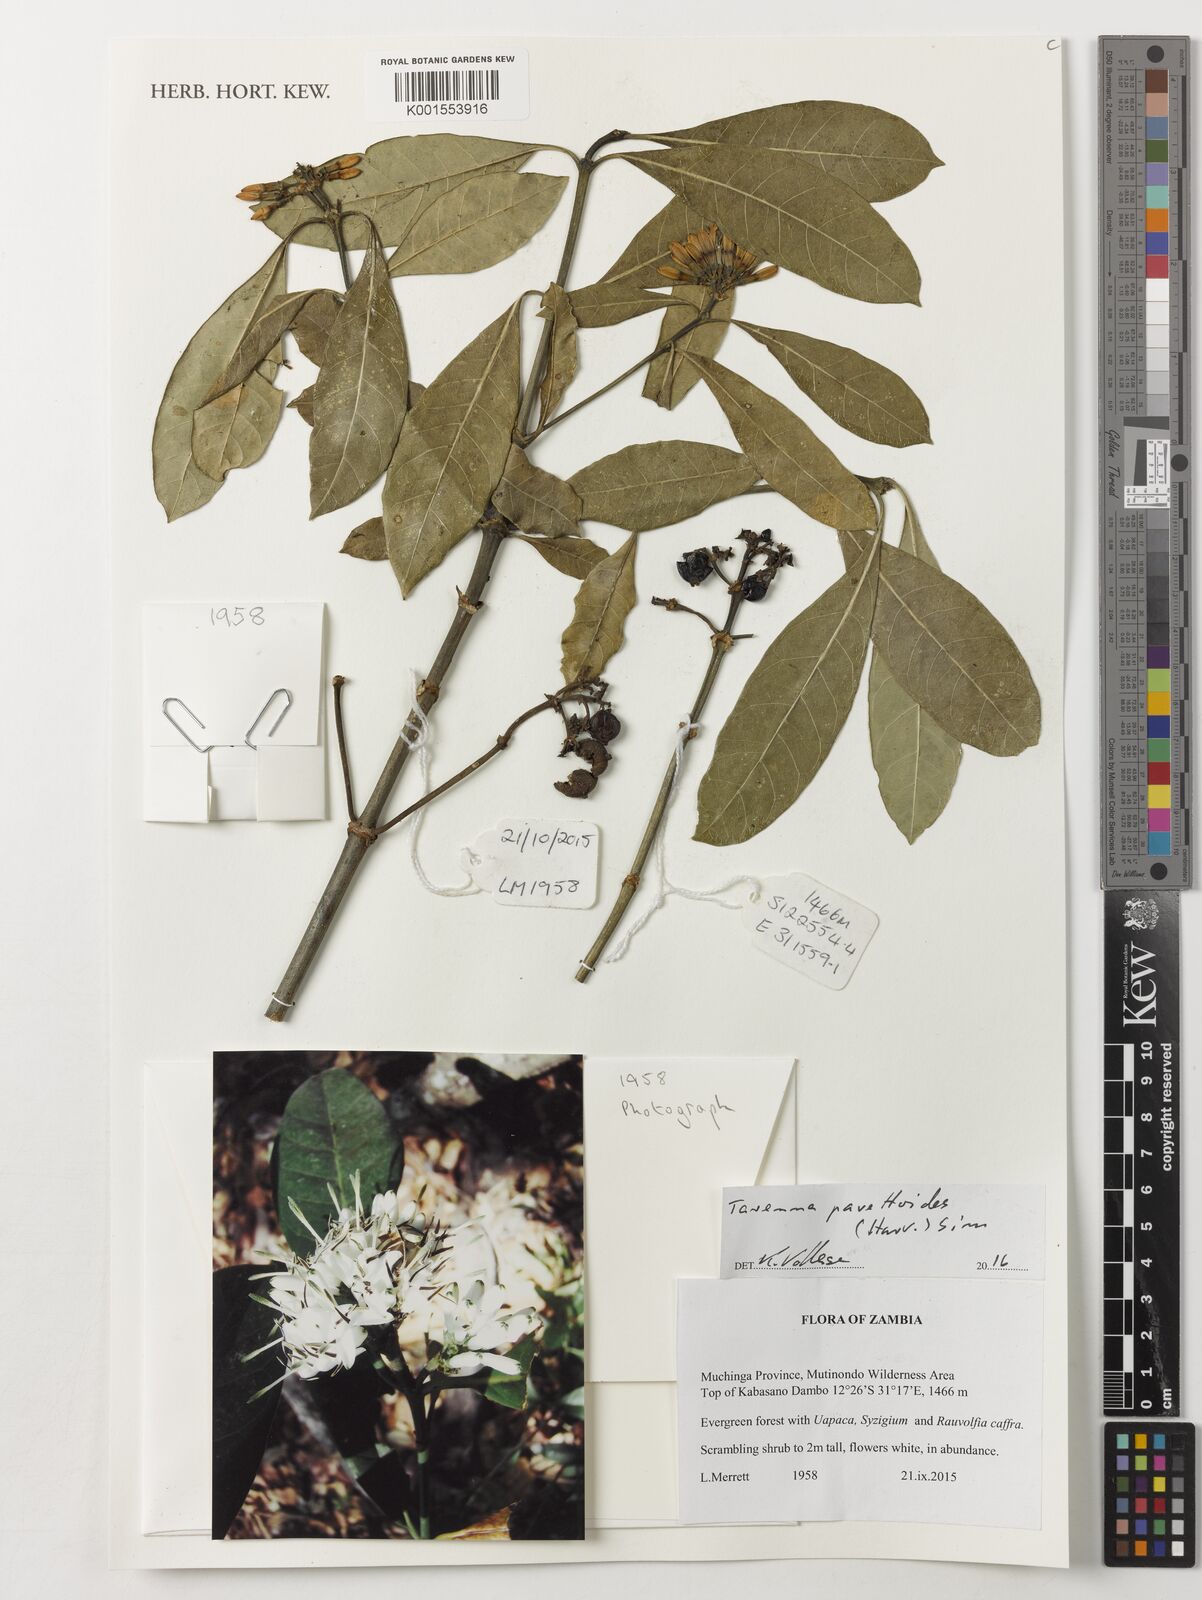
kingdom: Plantae
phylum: Tracheophyta
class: Magnoliopsida
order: Gentianales
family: Rubiaceae
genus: Tarenna
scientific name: Tarenna pavettoides
